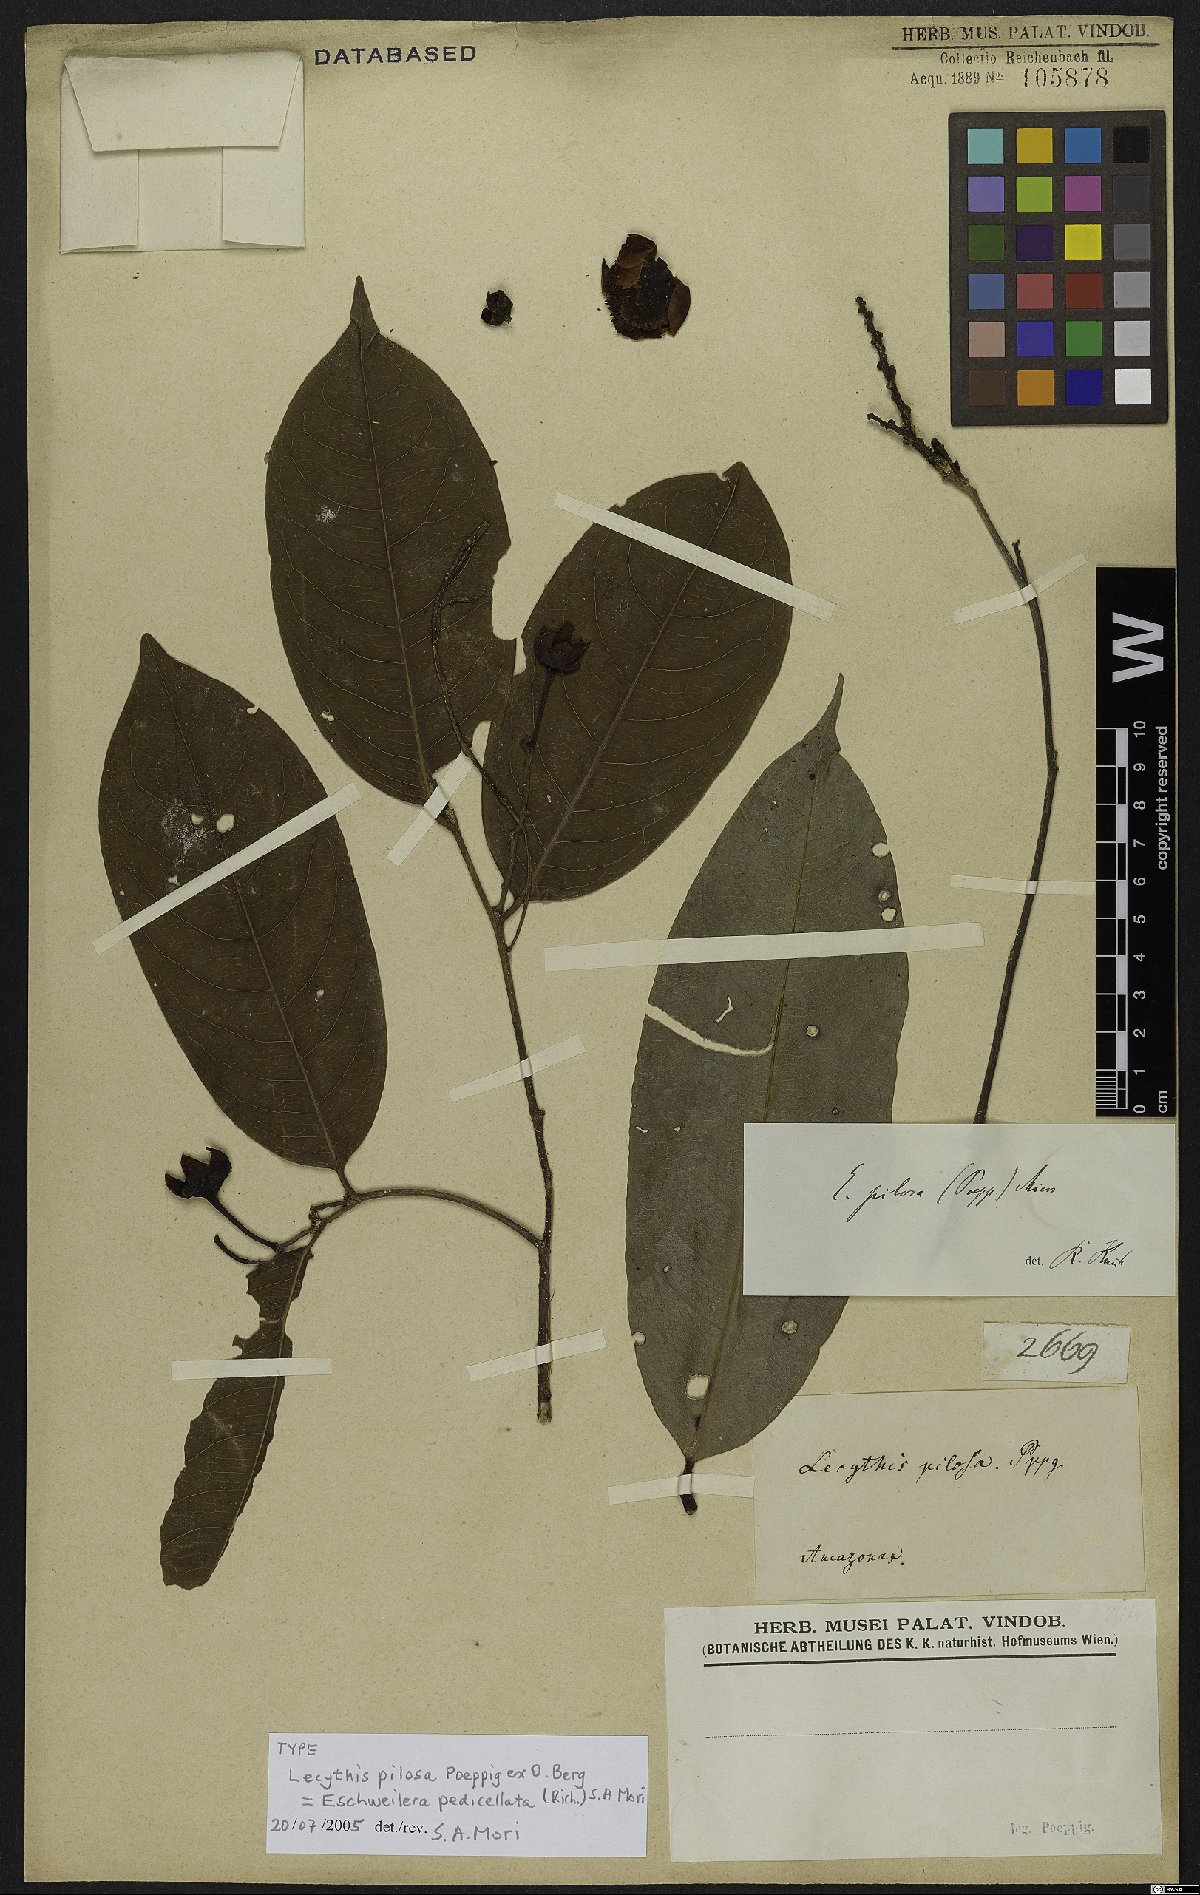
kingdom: Plantae
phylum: Tracheophyta
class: Magnoliopsida
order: Ericales
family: Lecythidaceae
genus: Eschweilera
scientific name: Eschweilera pedicellata
